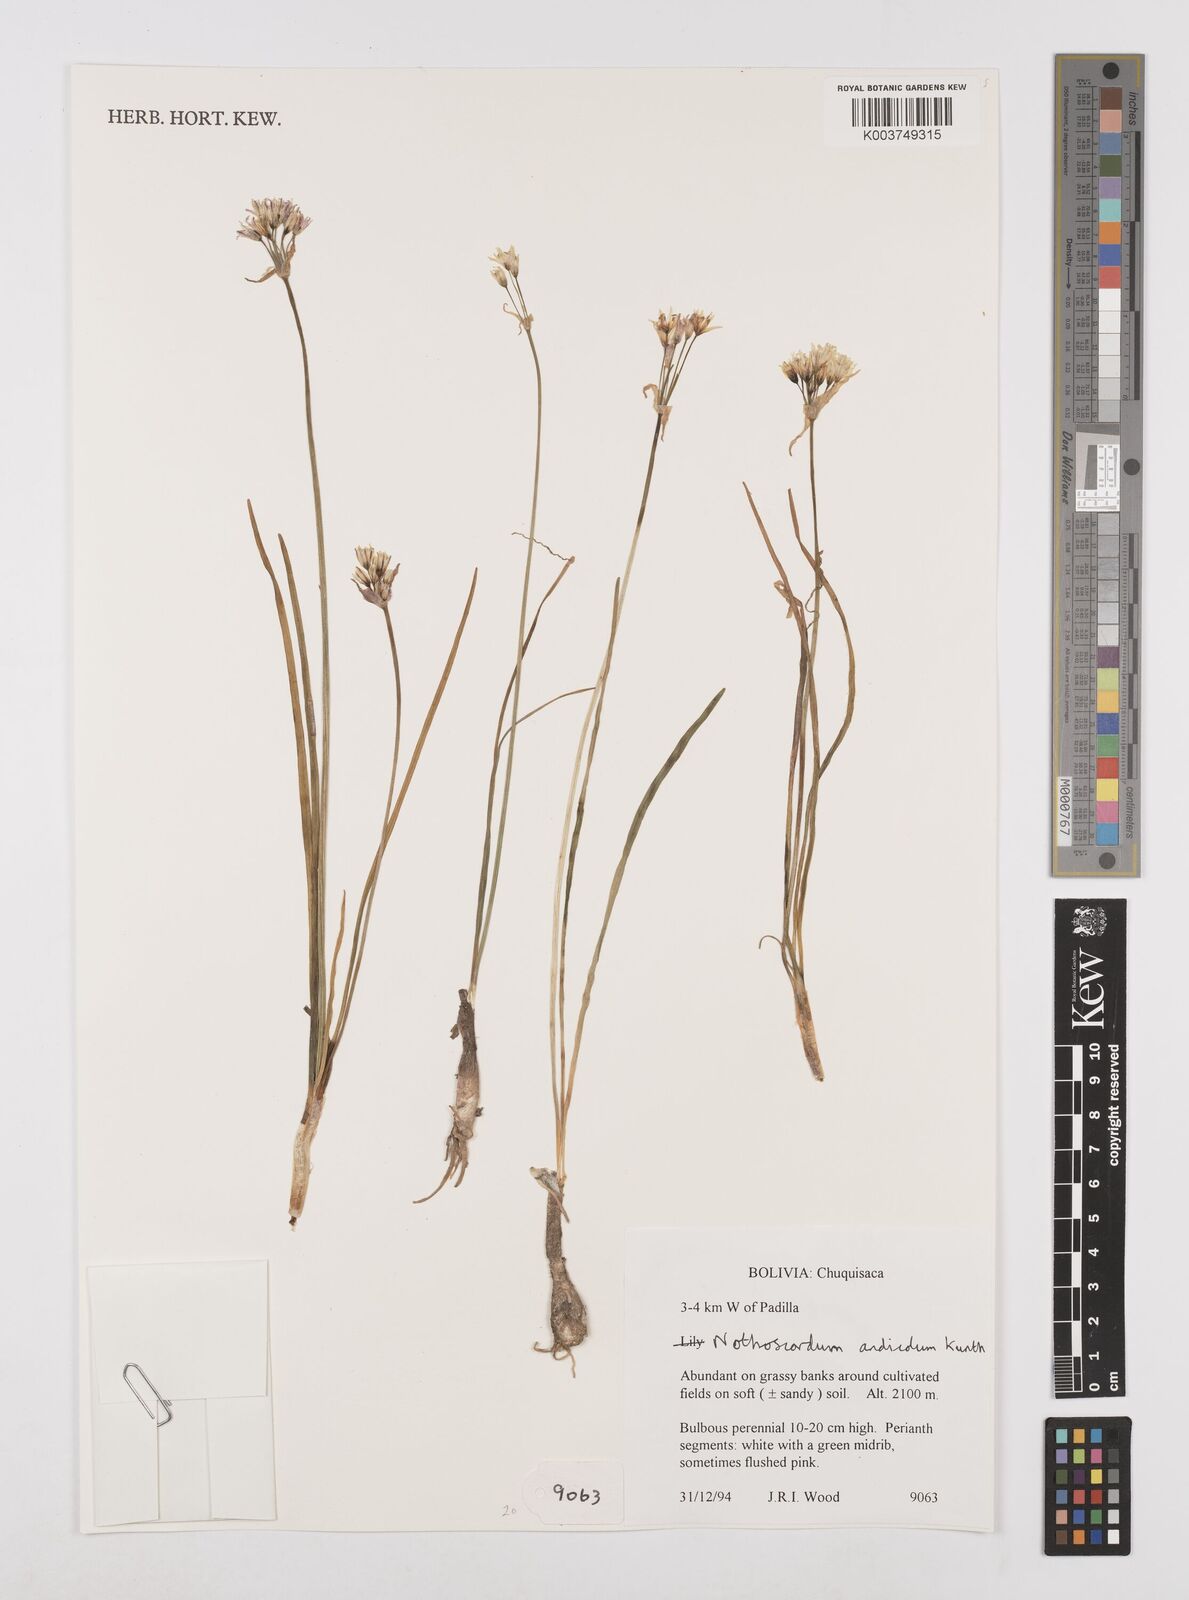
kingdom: Plantae
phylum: Tracheophyta
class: Liliopsida
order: Asparagales
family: Amaryllidaceae
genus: Nothoscordum
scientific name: Nothoscordum andicola
